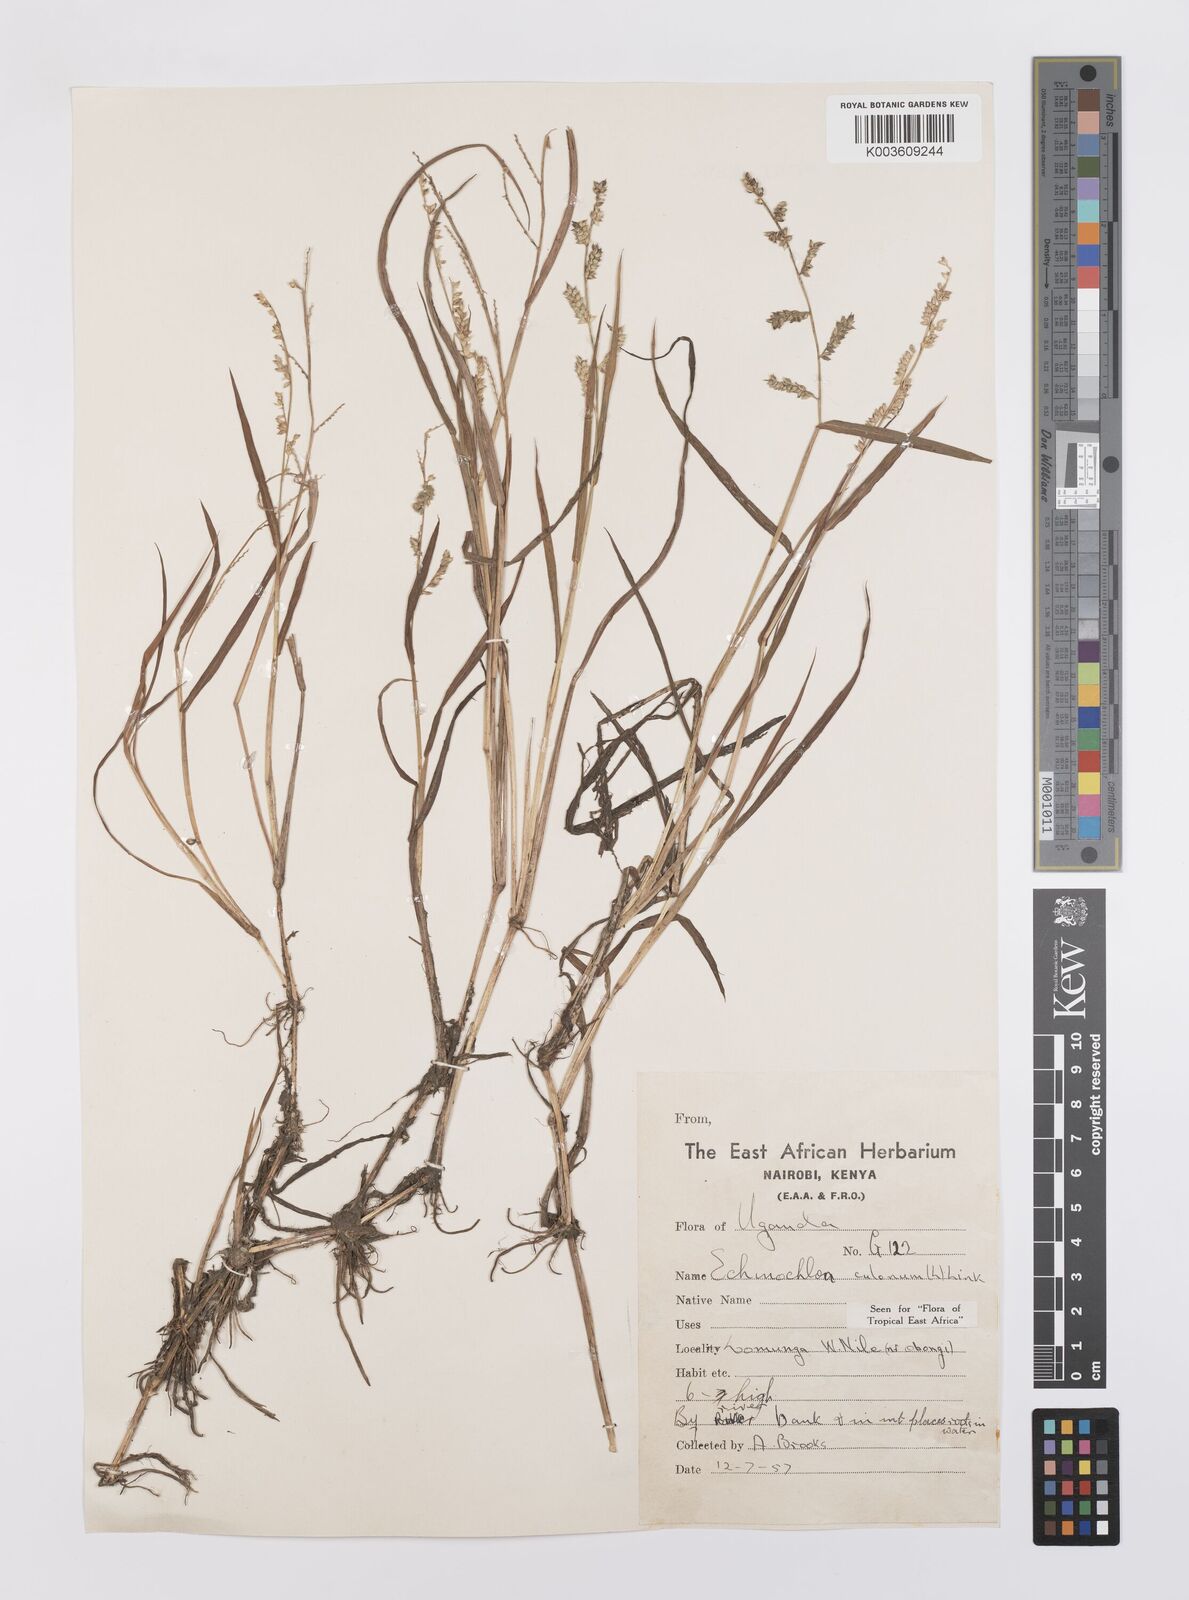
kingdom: Plantae
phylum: Tracheophyta
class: Liliopsida
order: Poales
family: Poaceae
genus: Echinochloa
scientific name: Echinochloa colonum
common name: Jungle rice
